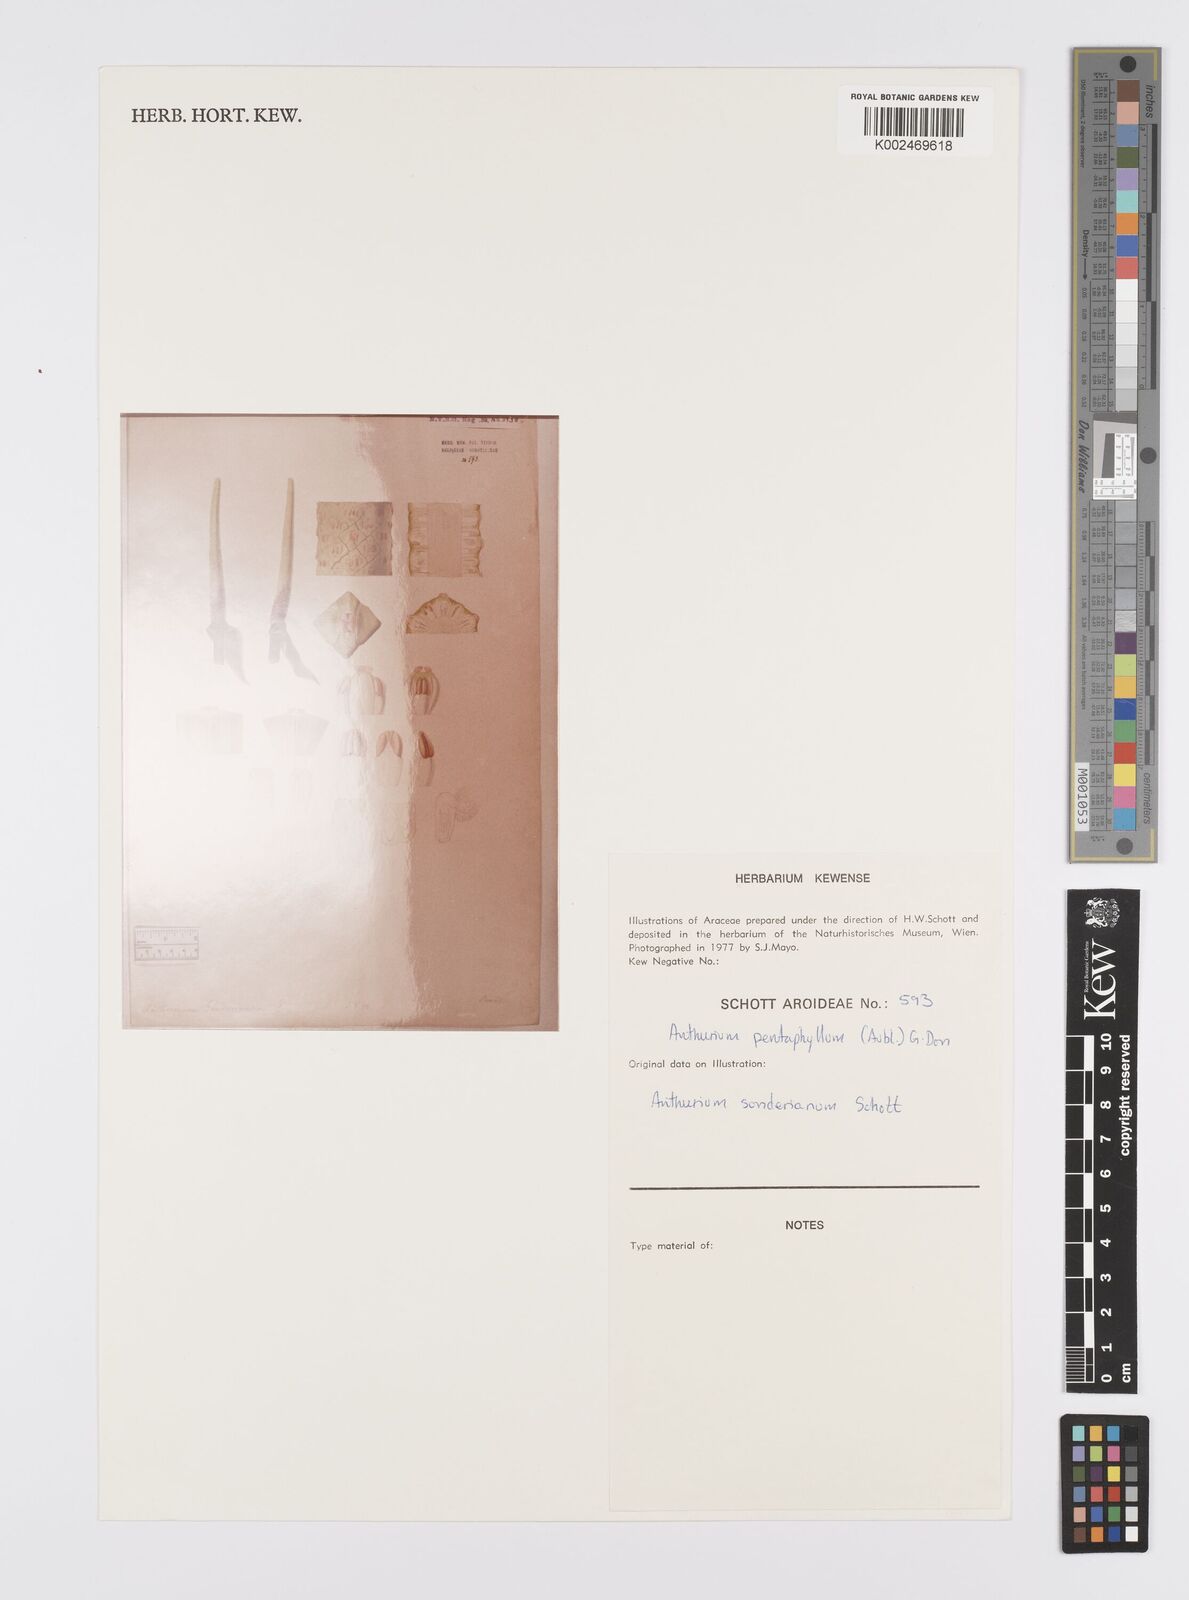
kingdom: Plantae
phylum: Tracheophyta
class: Liliopsida
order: Alismatales
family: Araceae
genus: Anthurium
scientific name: Anthurium pentaphyllum
